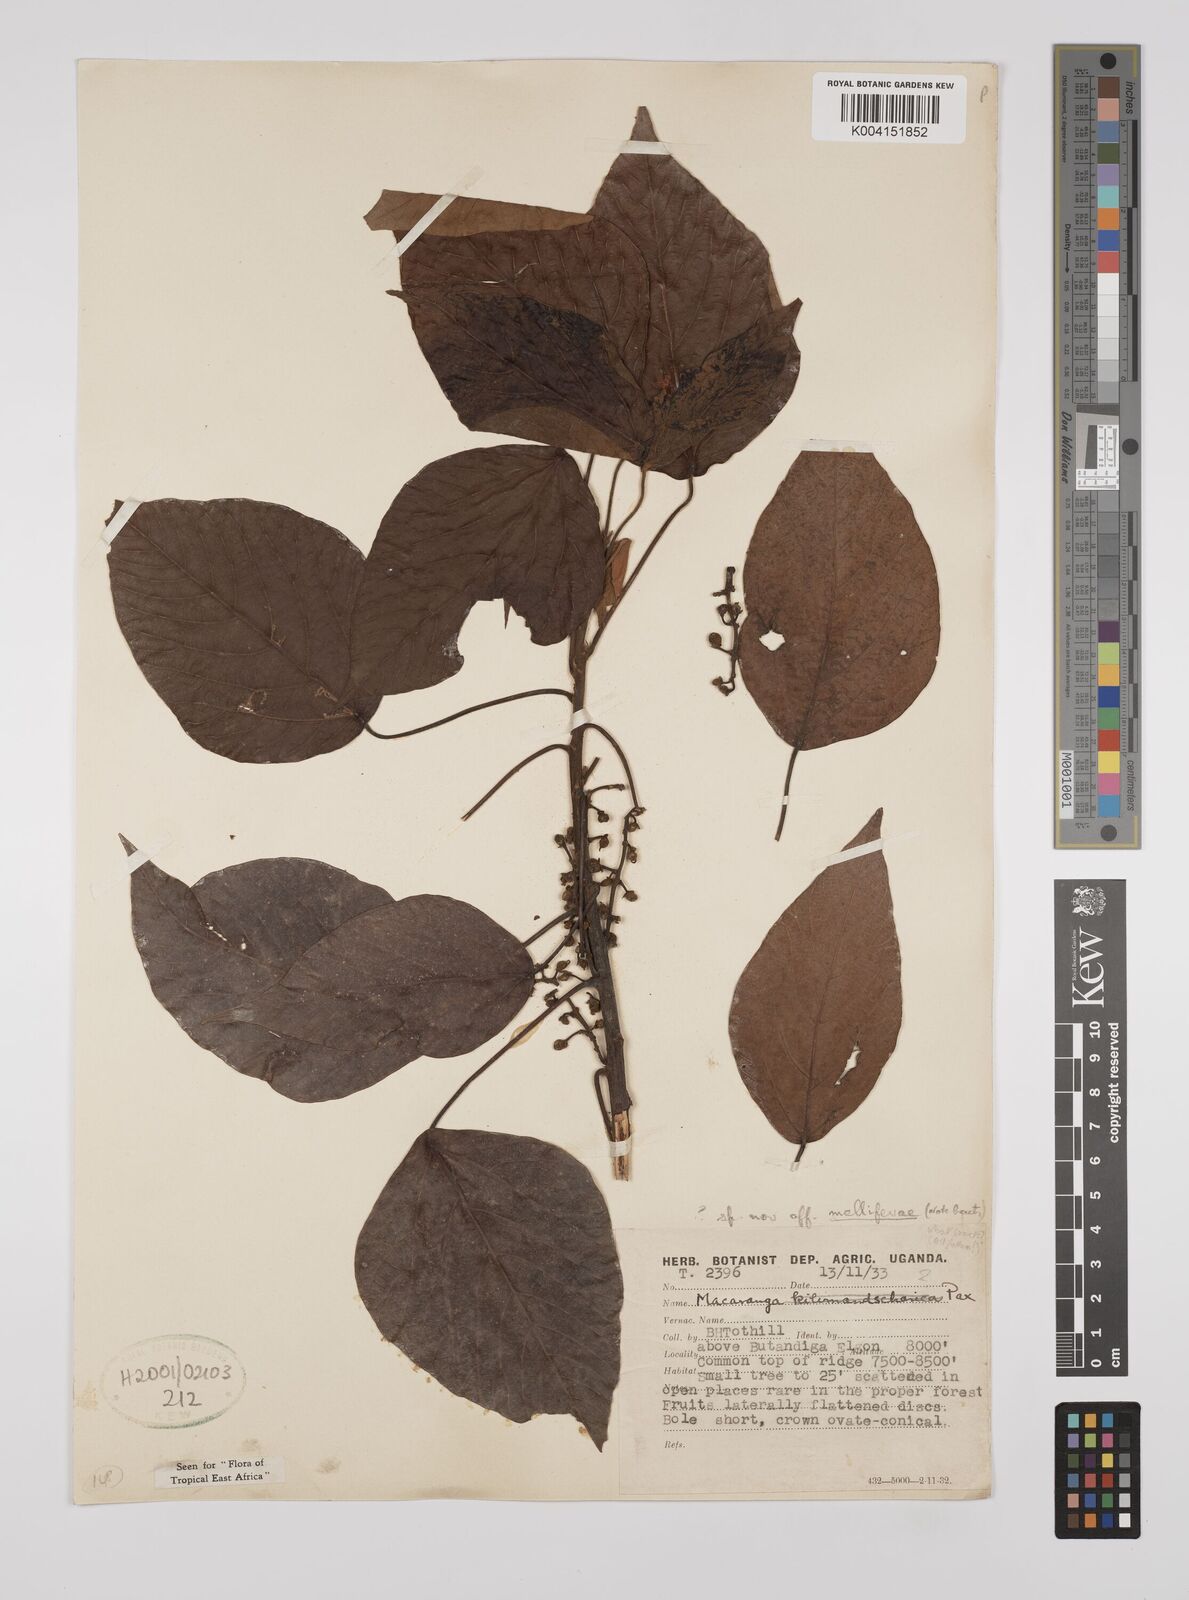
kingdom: Plantae
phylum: Tracheophyta
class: Magnoliopsida
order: Malpighiales
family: Euphorbiaceae
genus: Macaranga
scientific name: Macaranga
